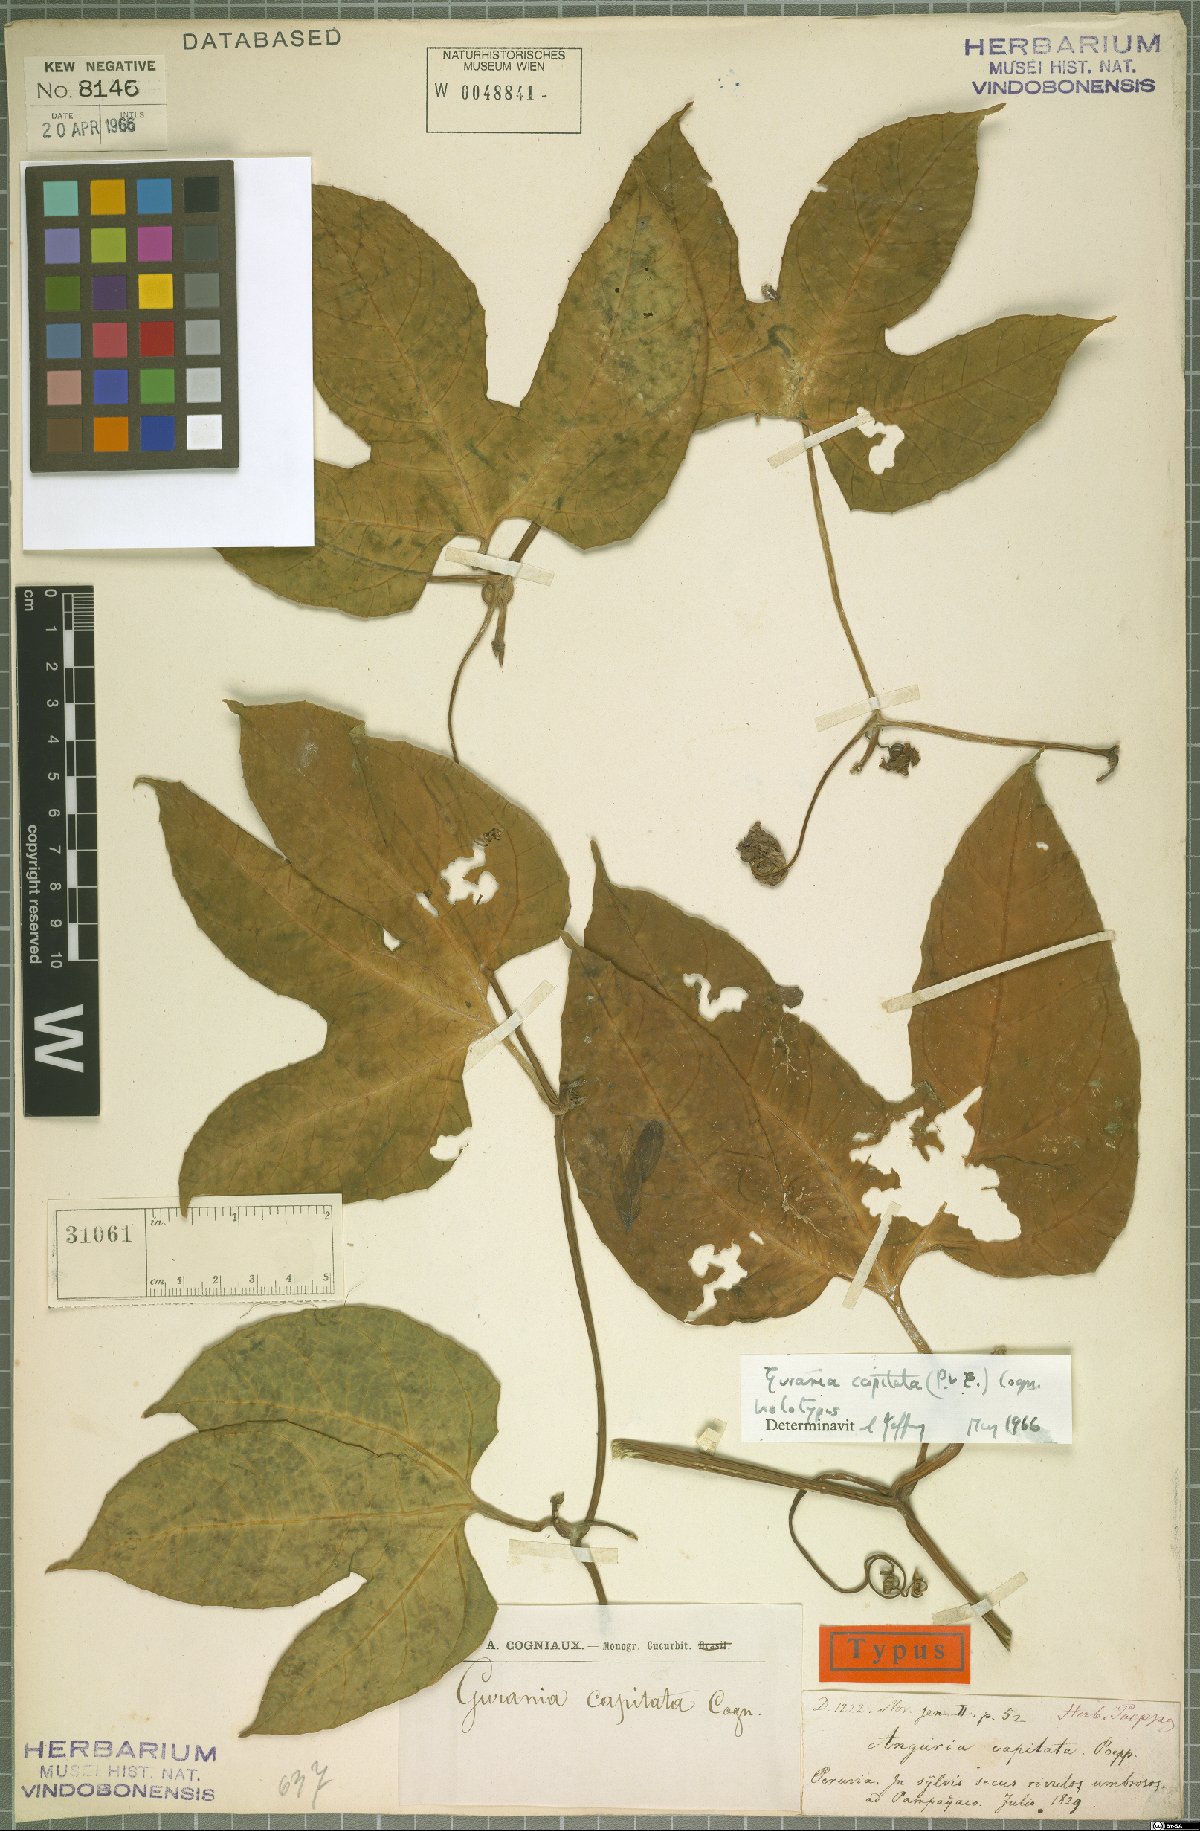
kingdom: Plantae
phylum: Tracheophyta
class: Magnoliopsida
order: Cucurbitales
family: Cucurbitaceae
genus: Gurania
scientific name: Gurania capitata
